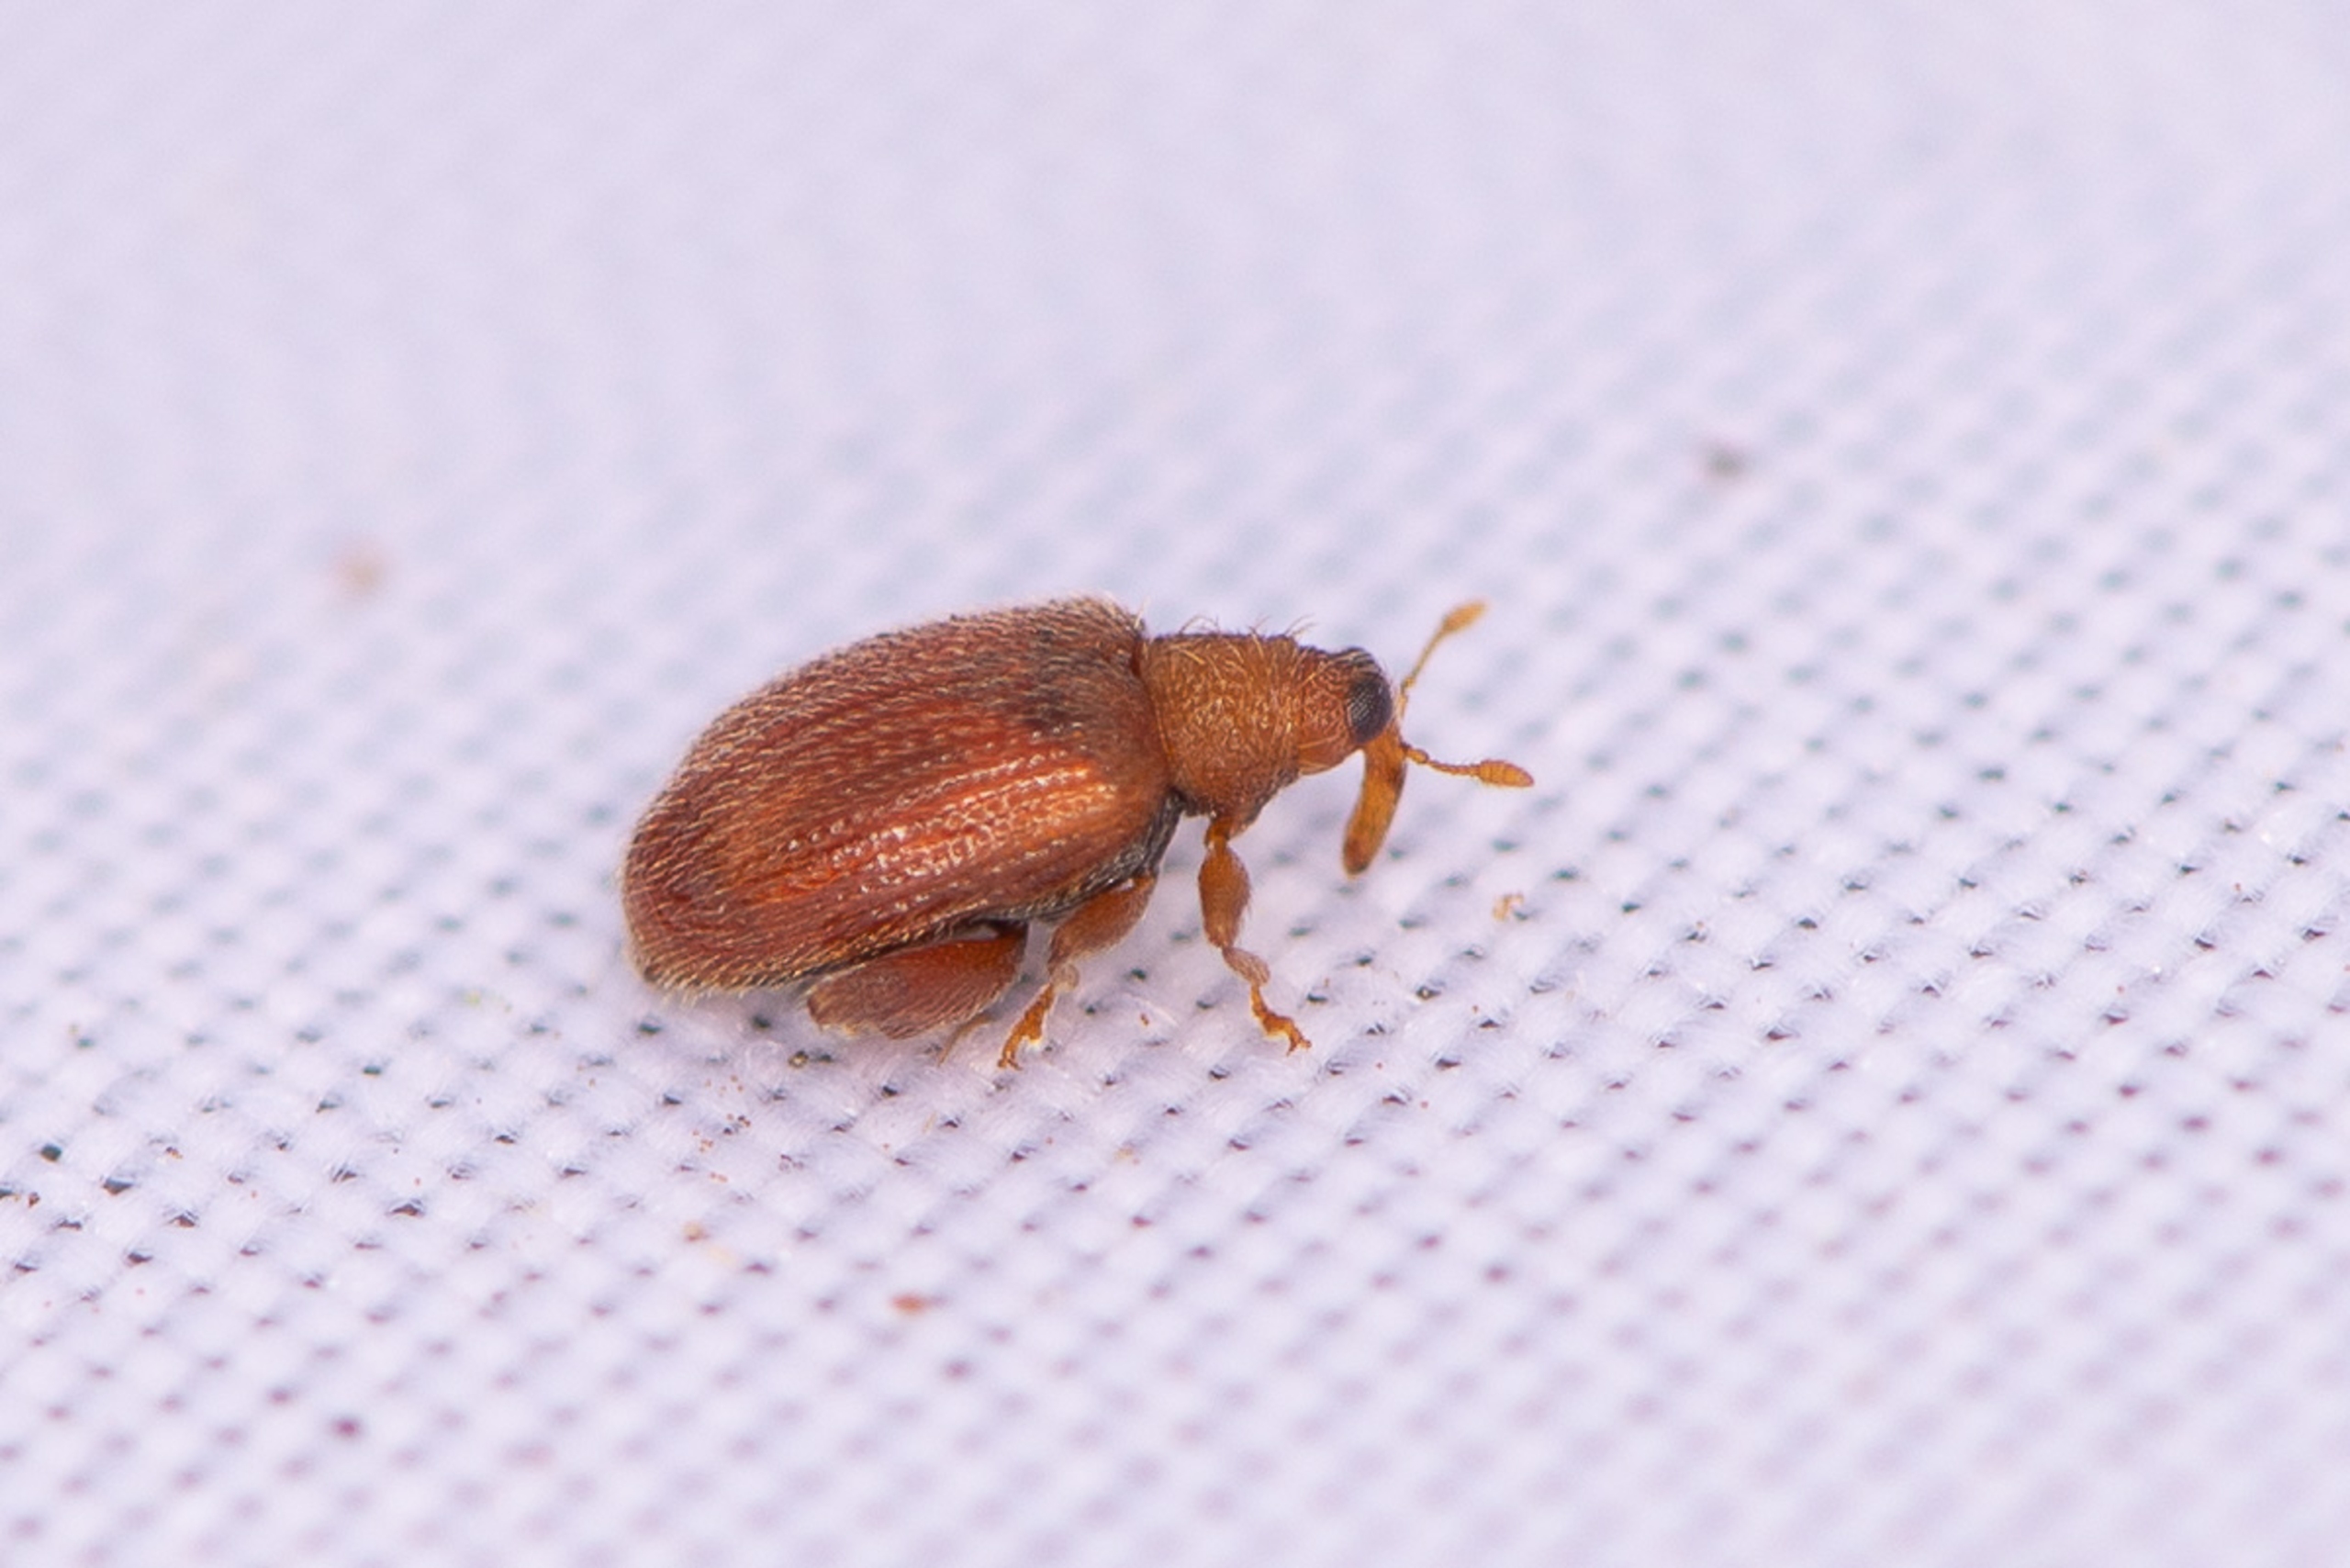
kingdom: Animalia
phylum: Arthropoda
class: Insecta
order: Coleoptera
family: Curculionidae
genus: Orchestes
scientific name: Orchestes betuleti
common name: Elmeloppe
